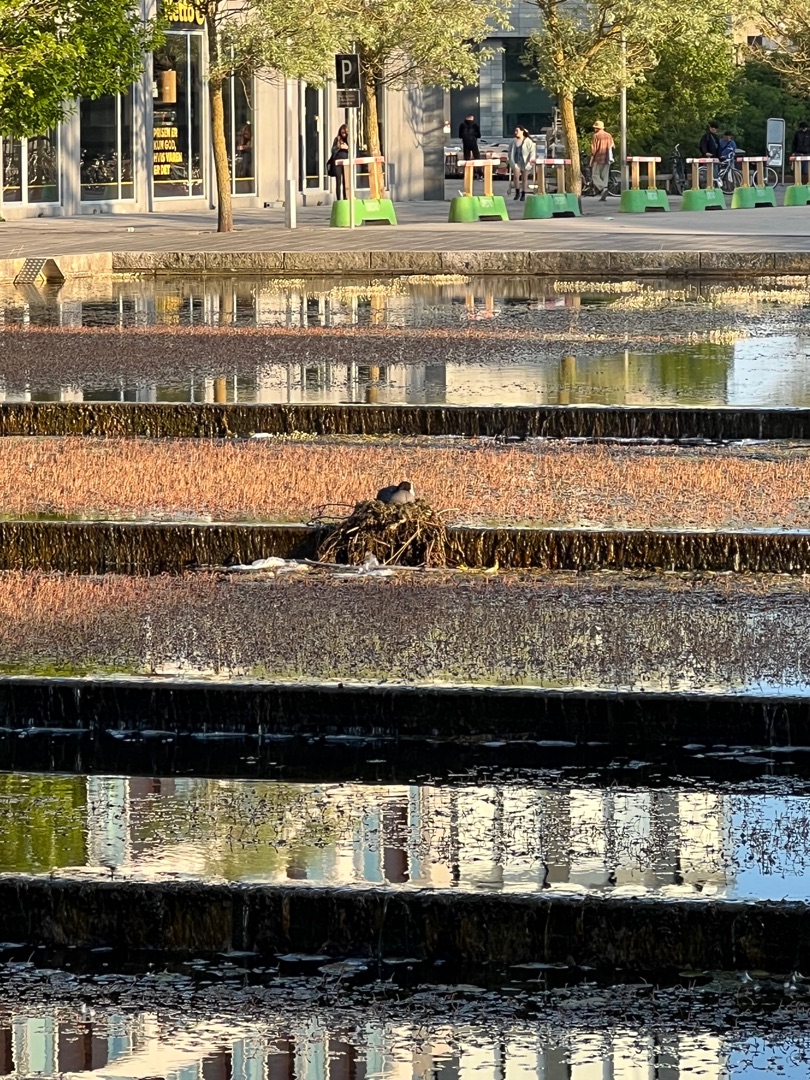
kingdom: Animalia
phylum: Chordata
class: Aves
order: Gruiformes
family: Rallidae
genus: Fulica
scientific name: Fulica atra
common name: Blishøne
